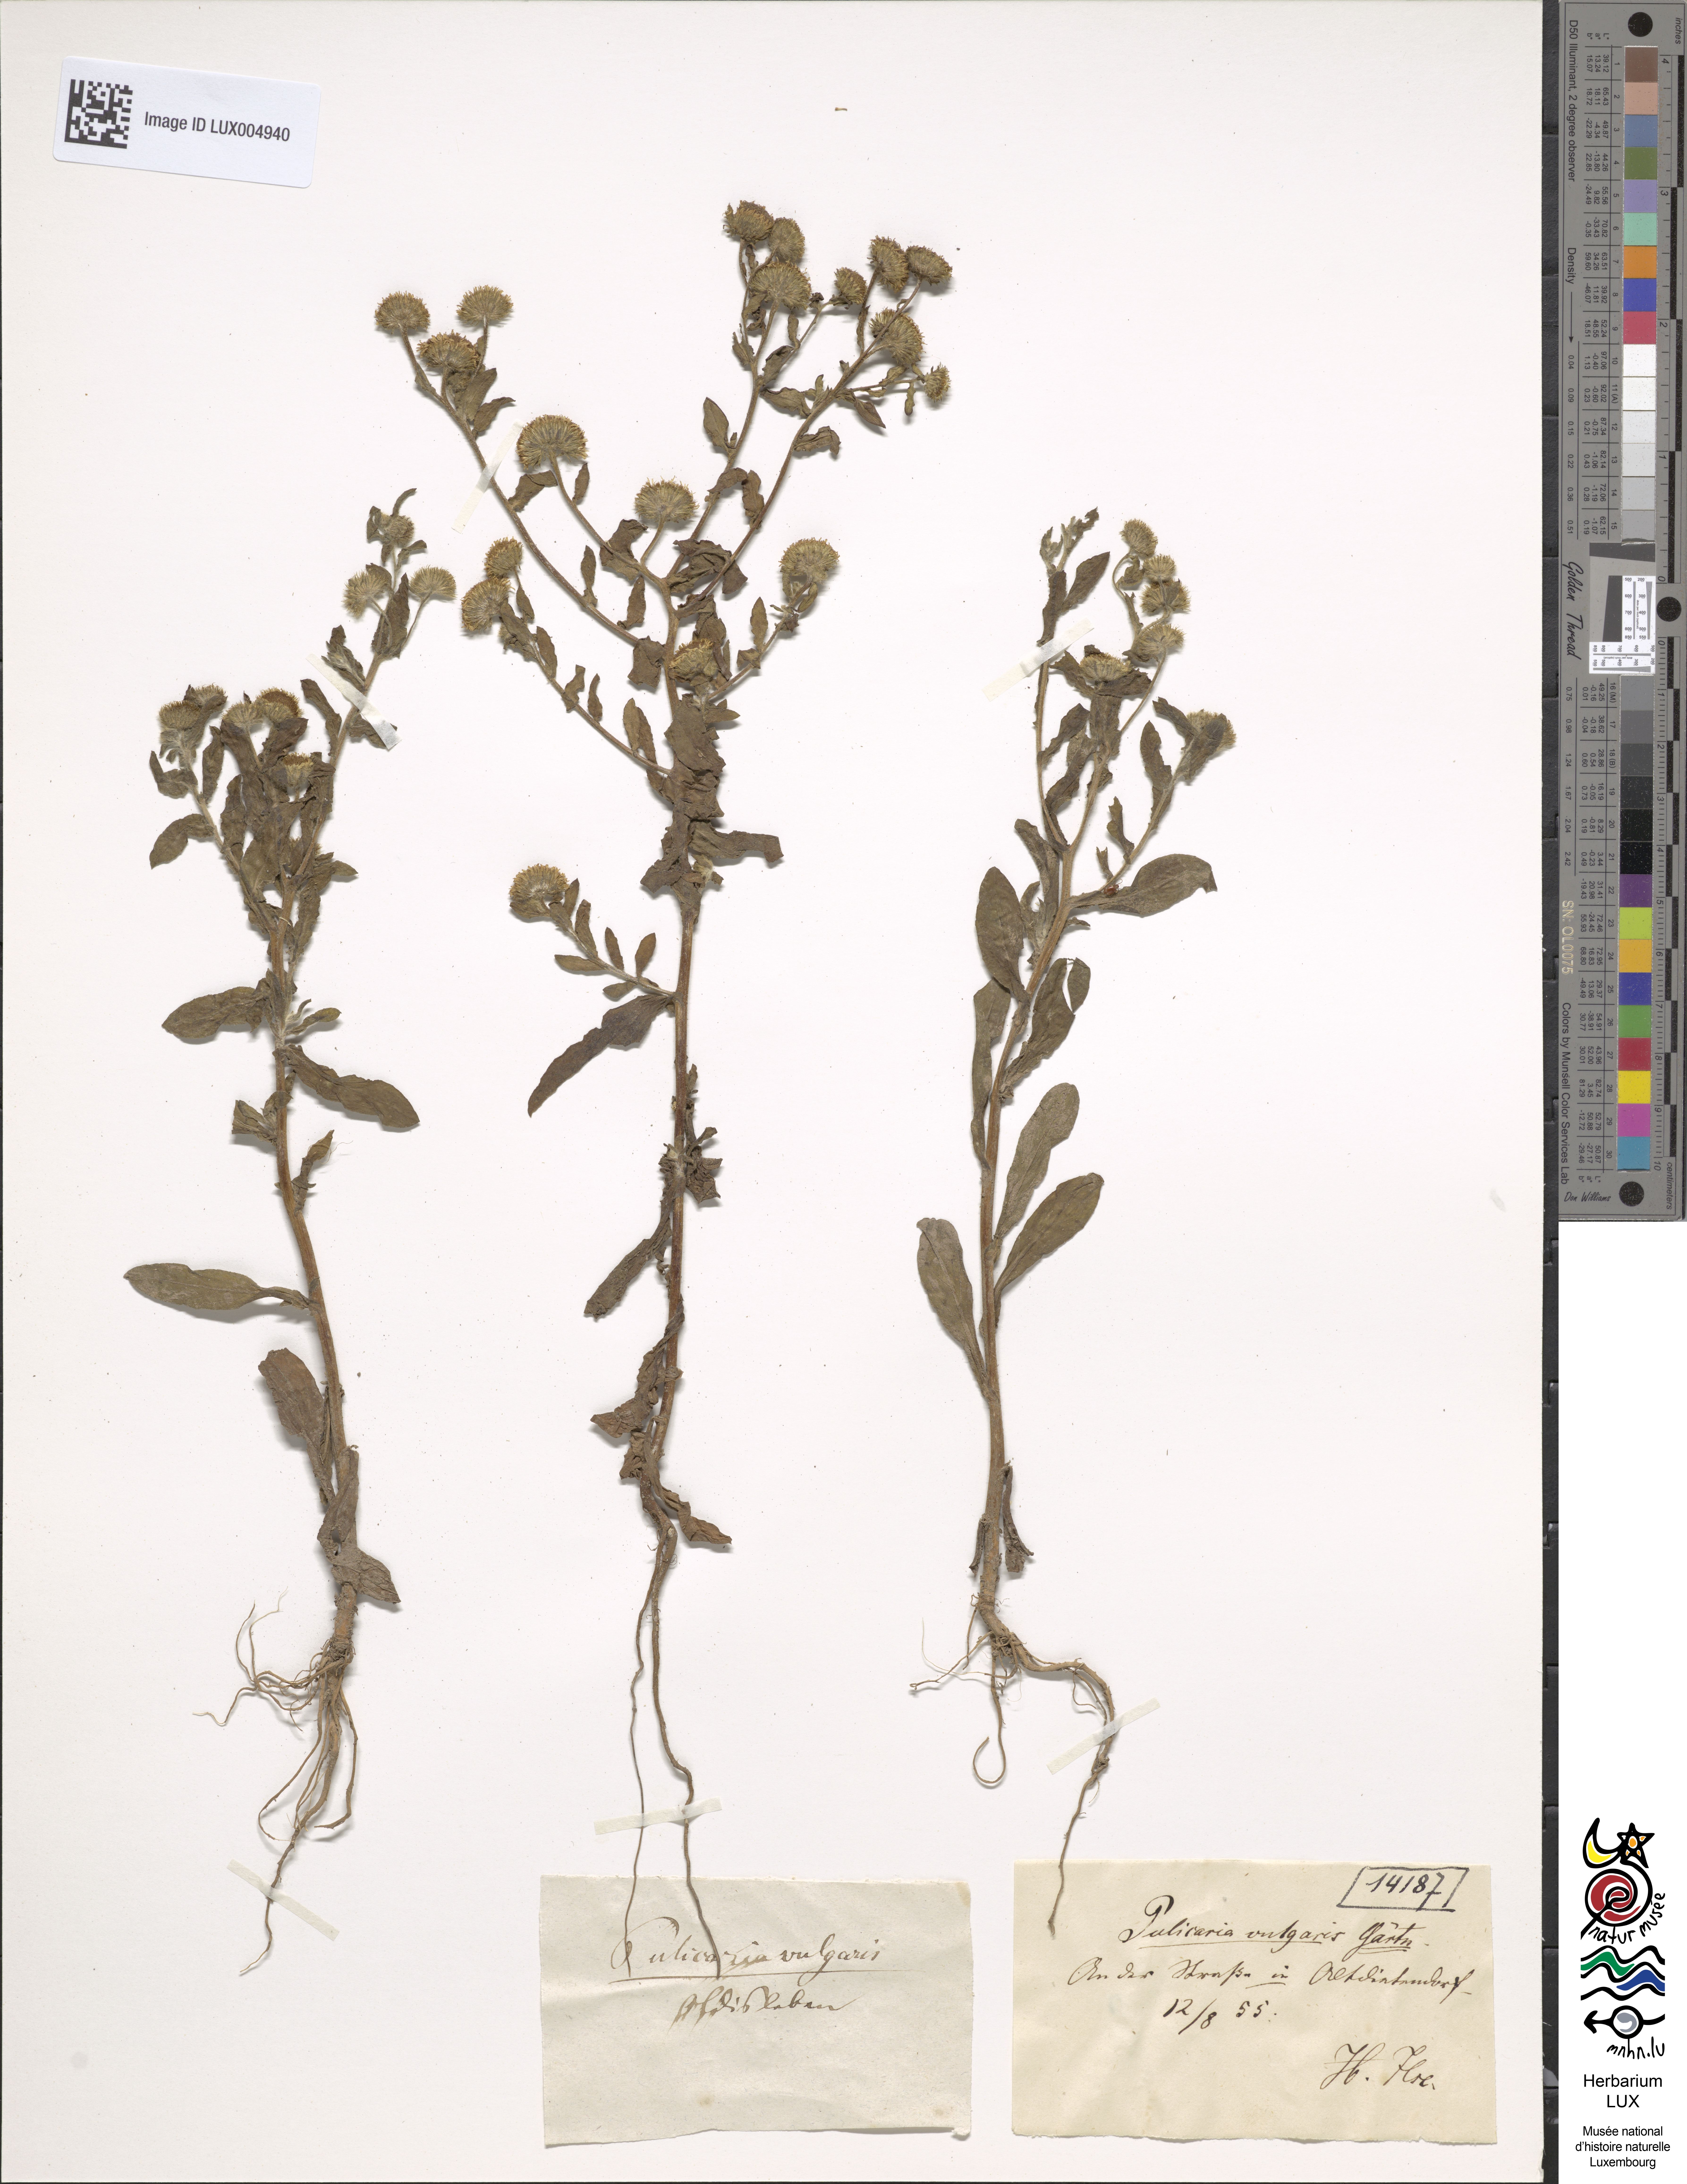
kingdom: Plantae
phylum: Tracheophyta
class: Magnoliopsida
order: Asterales
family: Asteraceae
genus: Pulicaria
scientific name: Pulicaria vulgaris
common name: Small fleabane
